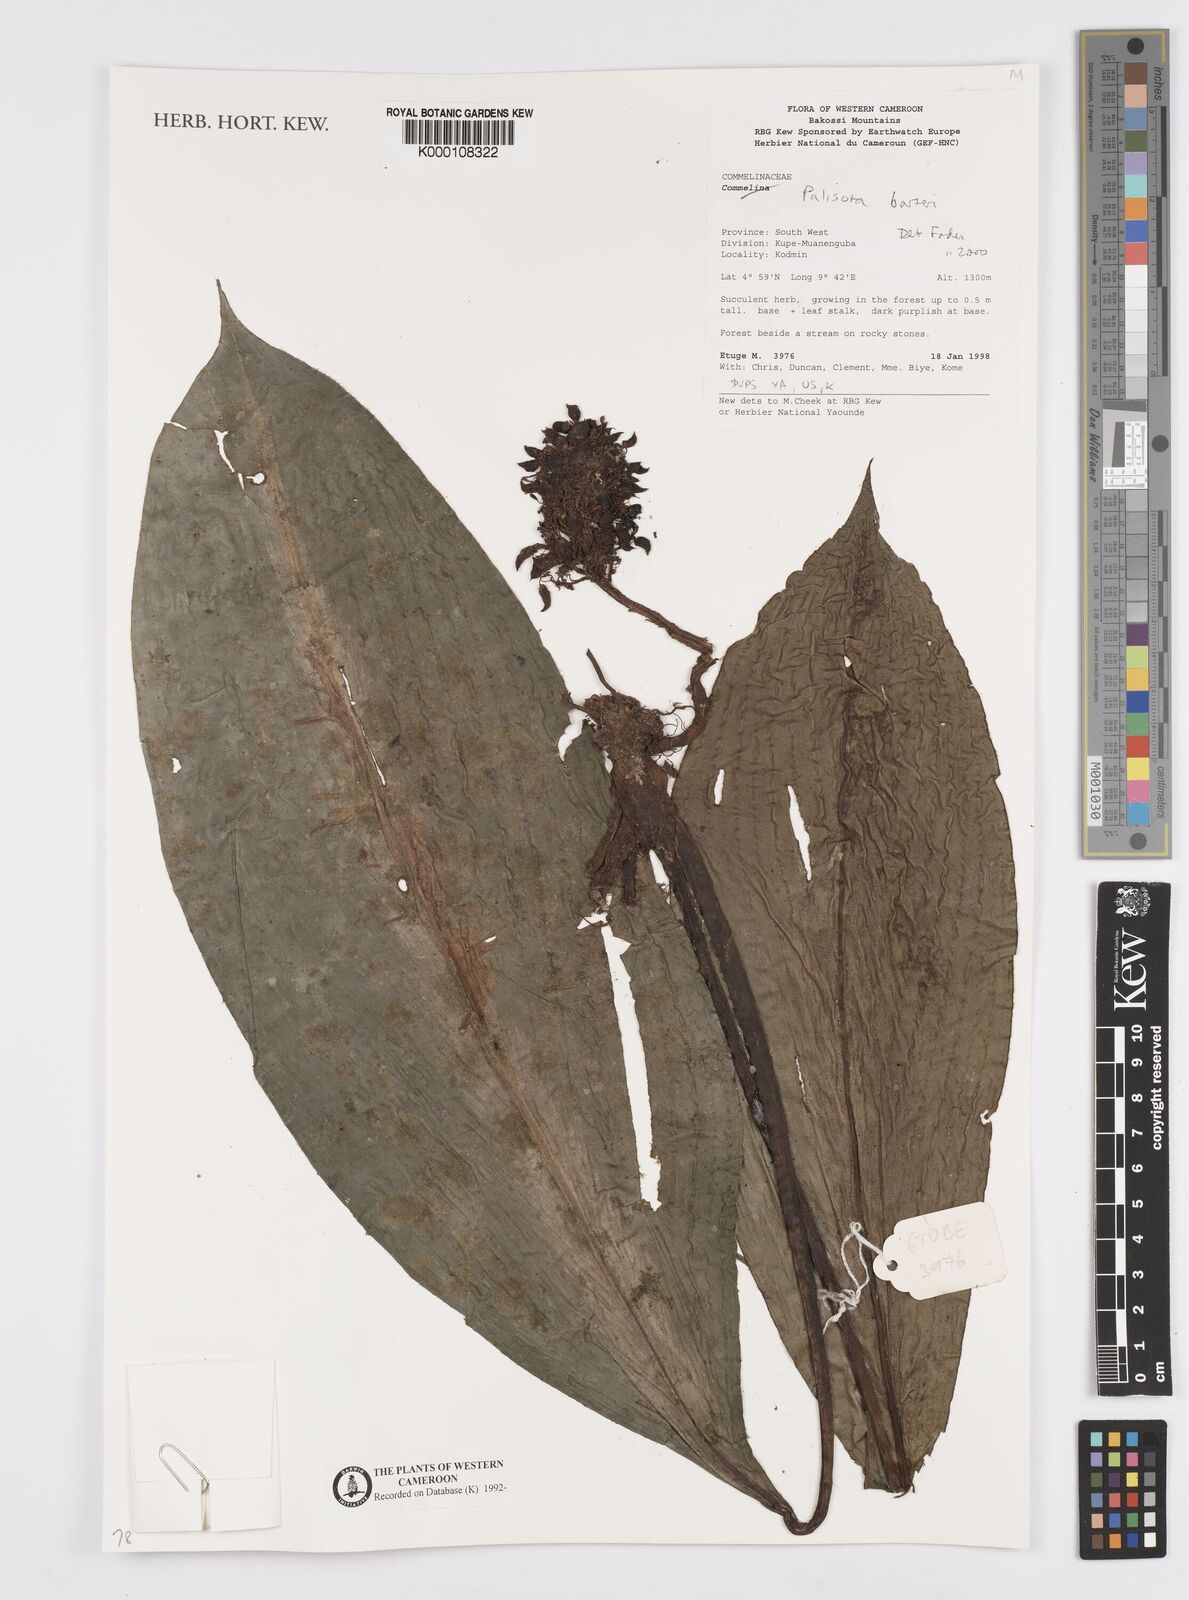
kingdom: Plantae
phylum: Tracheophyta
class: Liliopsida
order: Commelinales
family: Commelinaceae
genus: Palisota
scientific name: Palisota barteri
